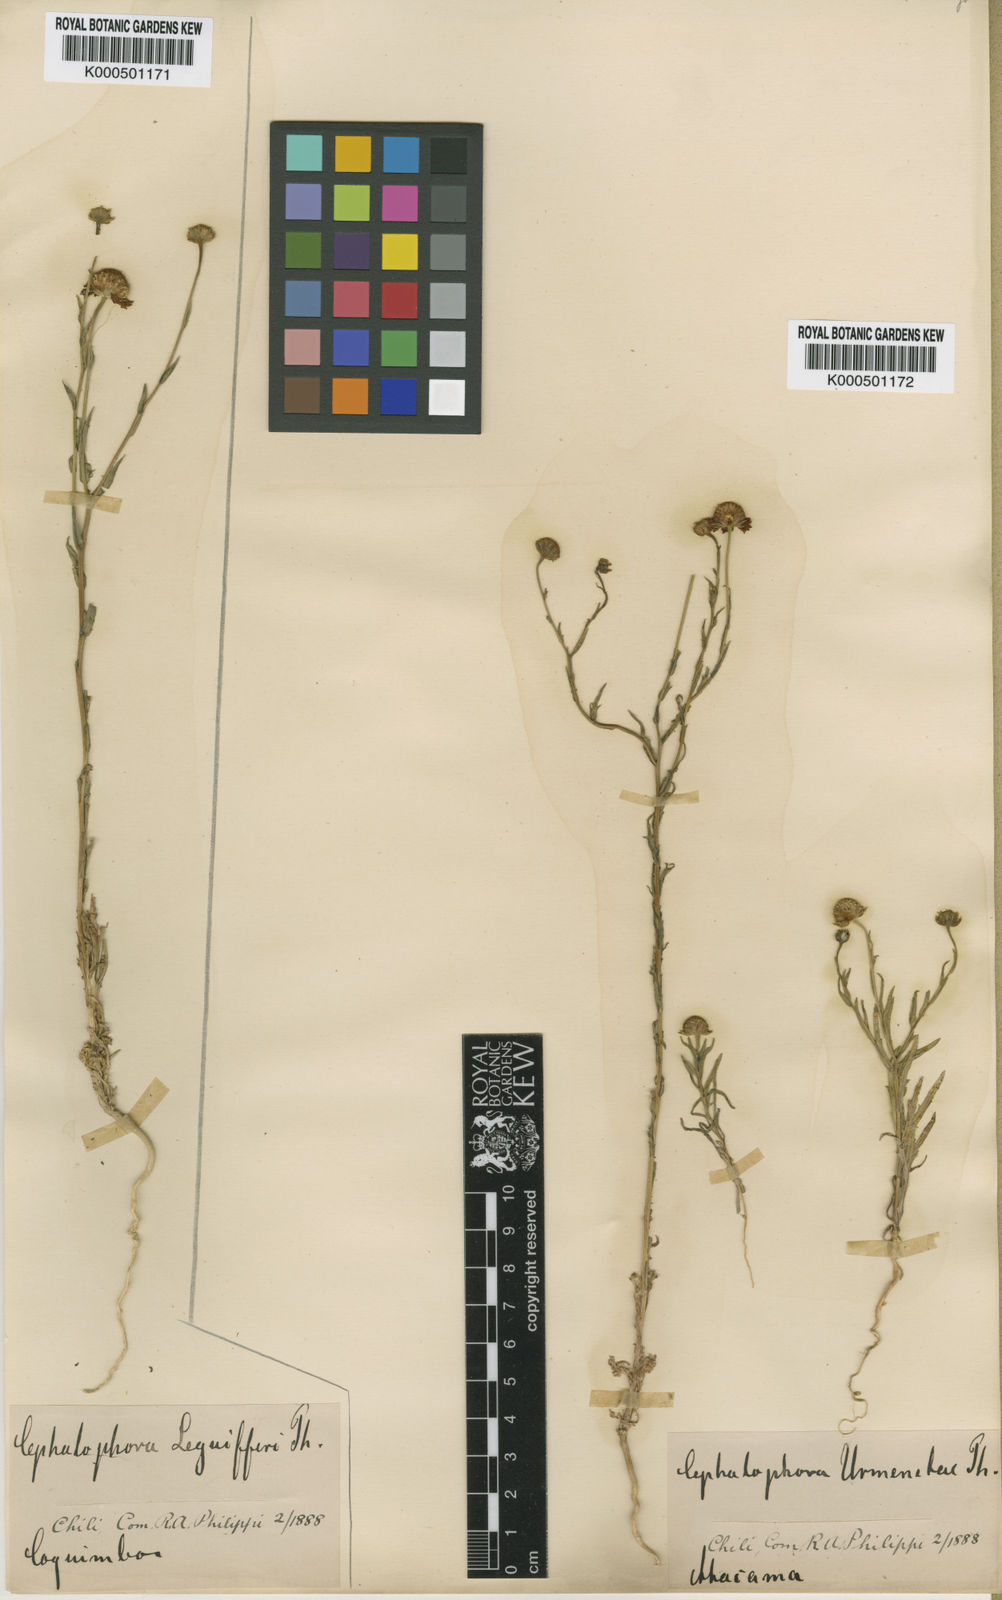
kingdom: Plantae
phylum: Tracheophyta
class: Magnoliopsida
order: Asterales
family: Asteraceae
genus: Helenium
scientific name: Helenium urmenetae
